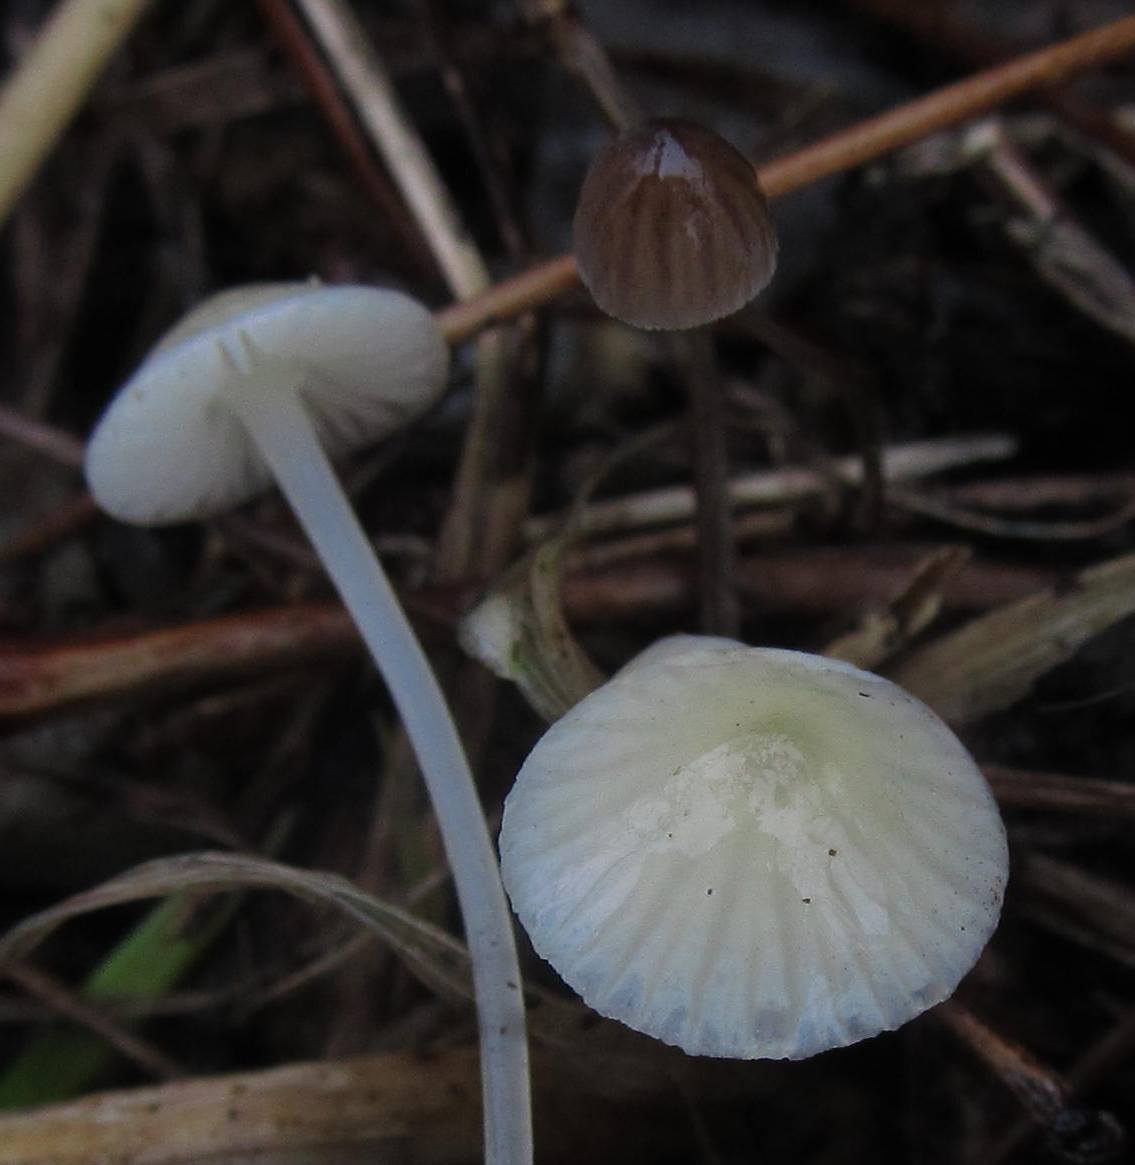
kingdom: Fungi
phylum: Basidiomycota
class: Agaricomycetes
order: Agaricales
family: Mycenaceae
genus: Mycena
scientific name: Mycena erubescens
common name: galde-huesvamp
